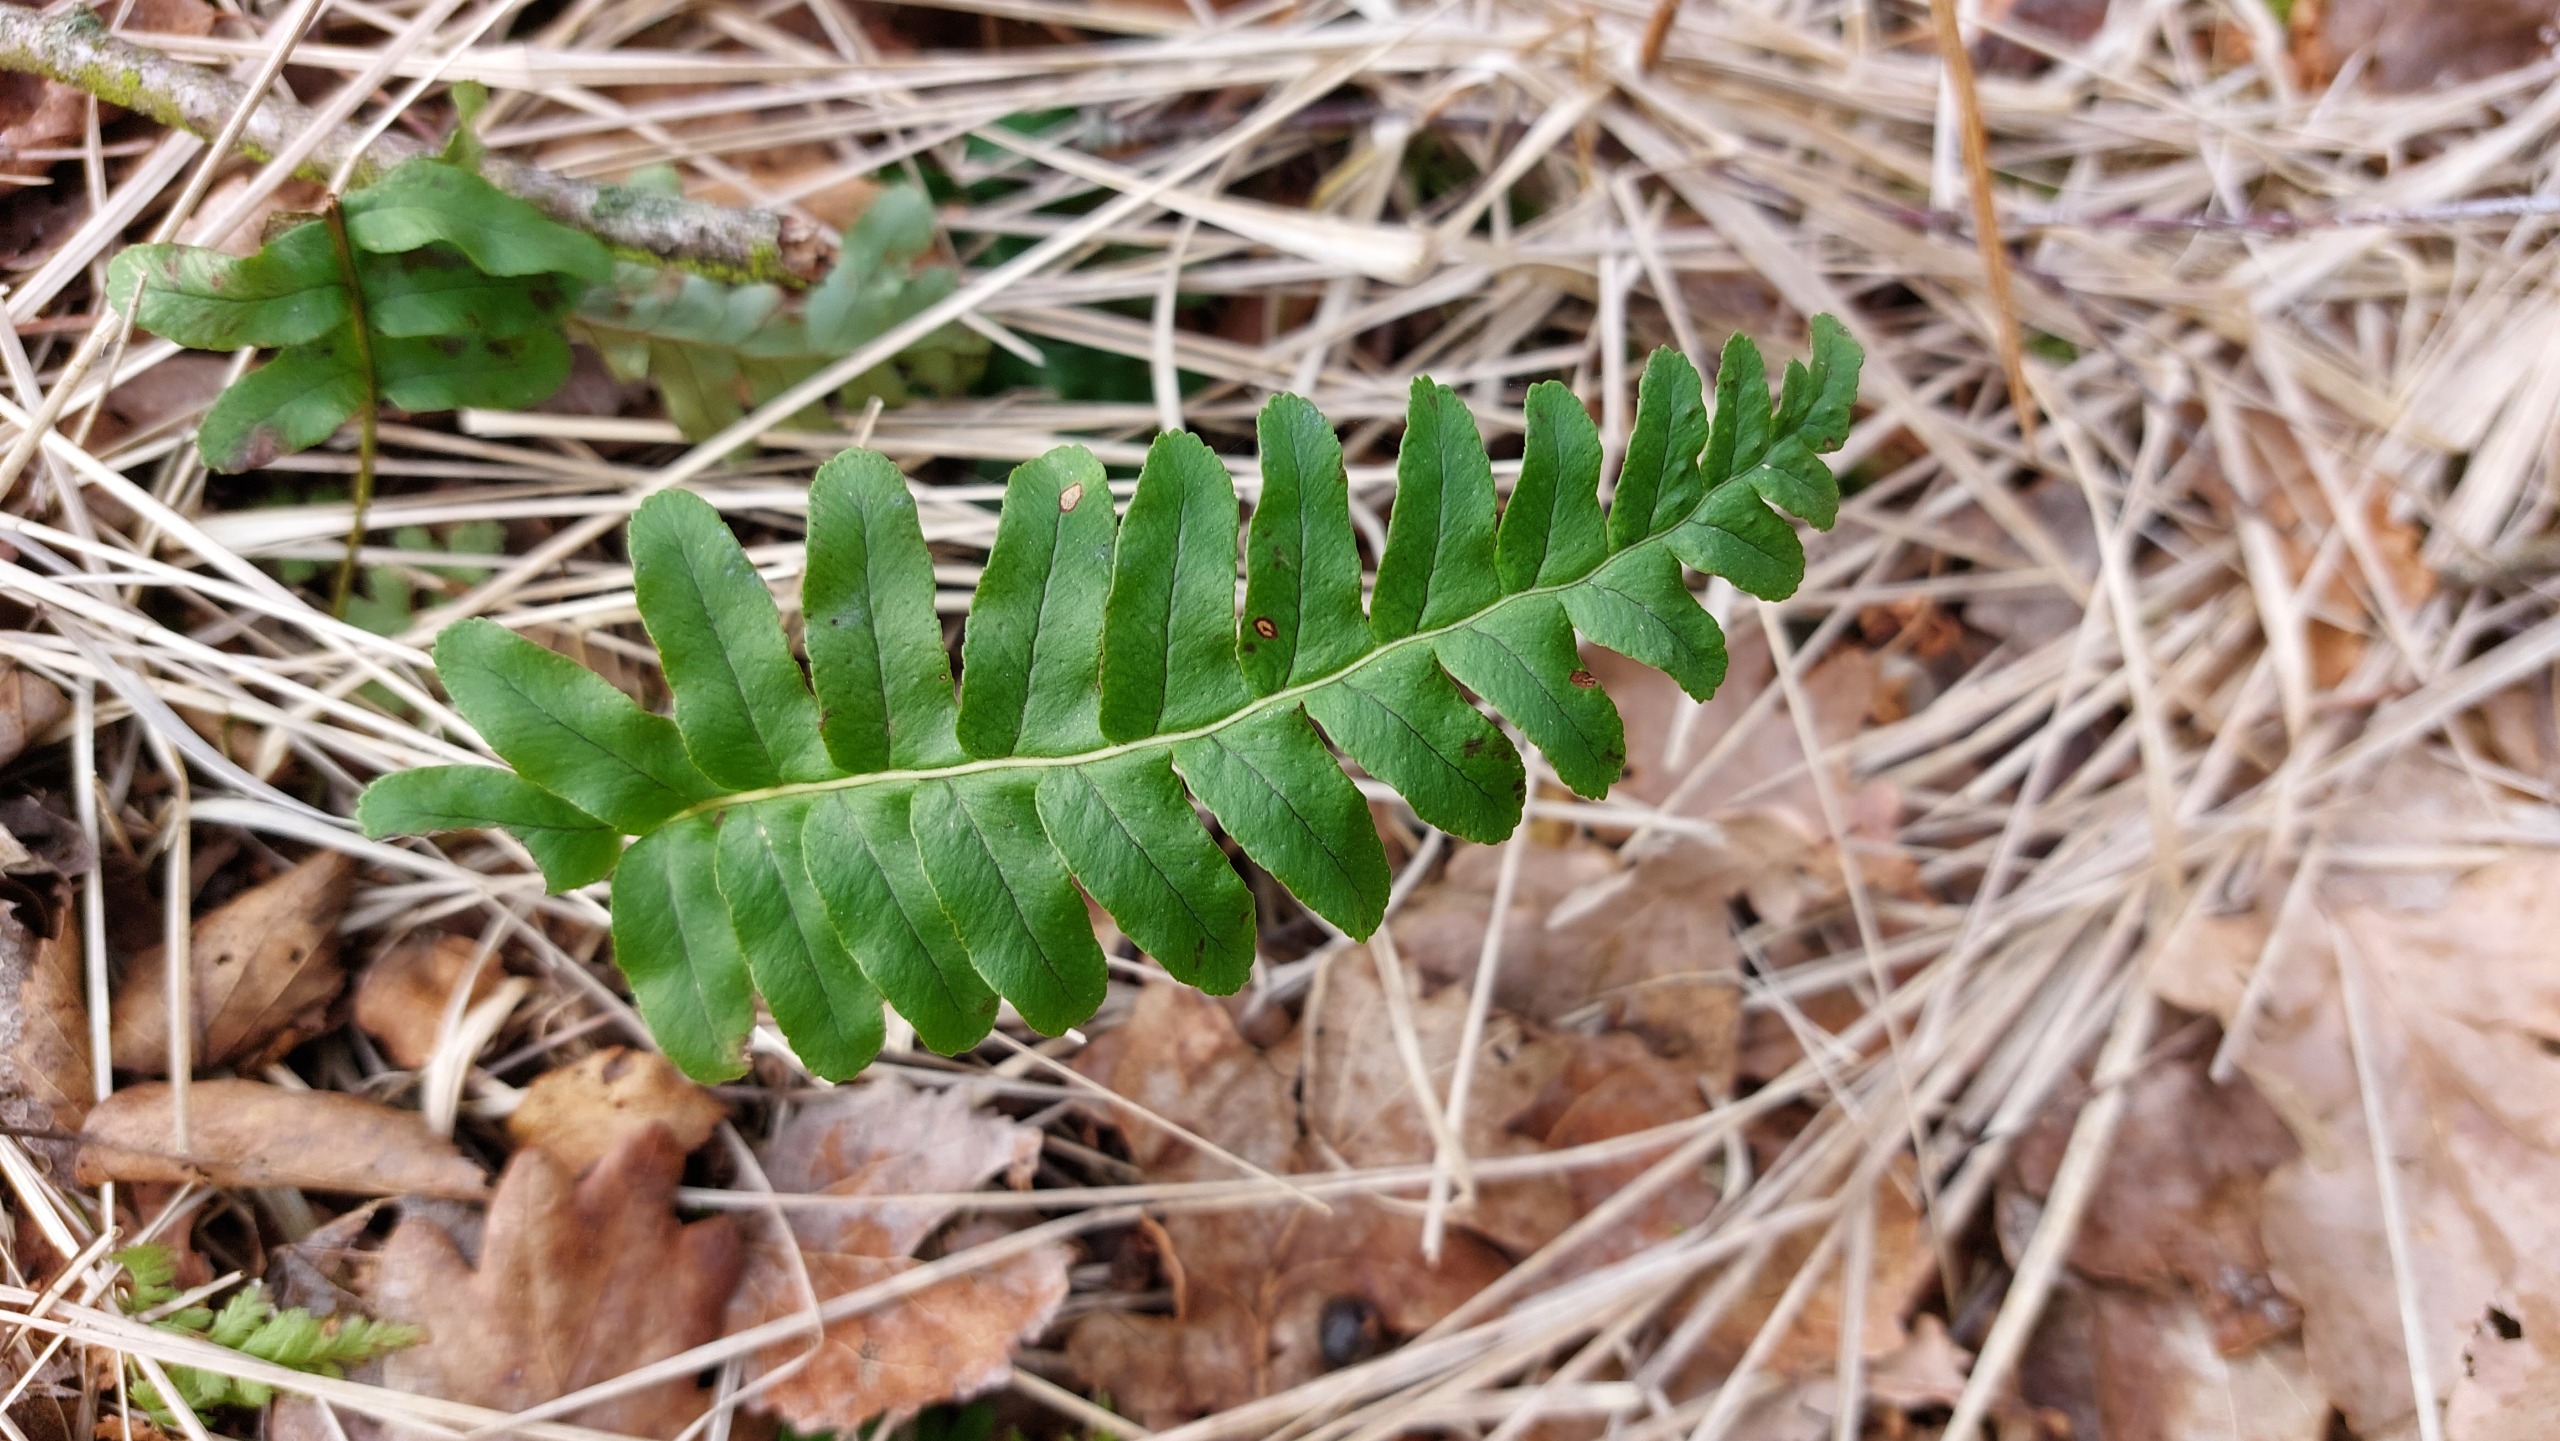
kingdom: Plantae
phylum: Tracheophyta
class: Polypodiopsida
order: Polypodiales
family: Polypodiaceae
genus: Polypodium
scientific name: Polypodium vulgare
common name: Almindelig engelsød
